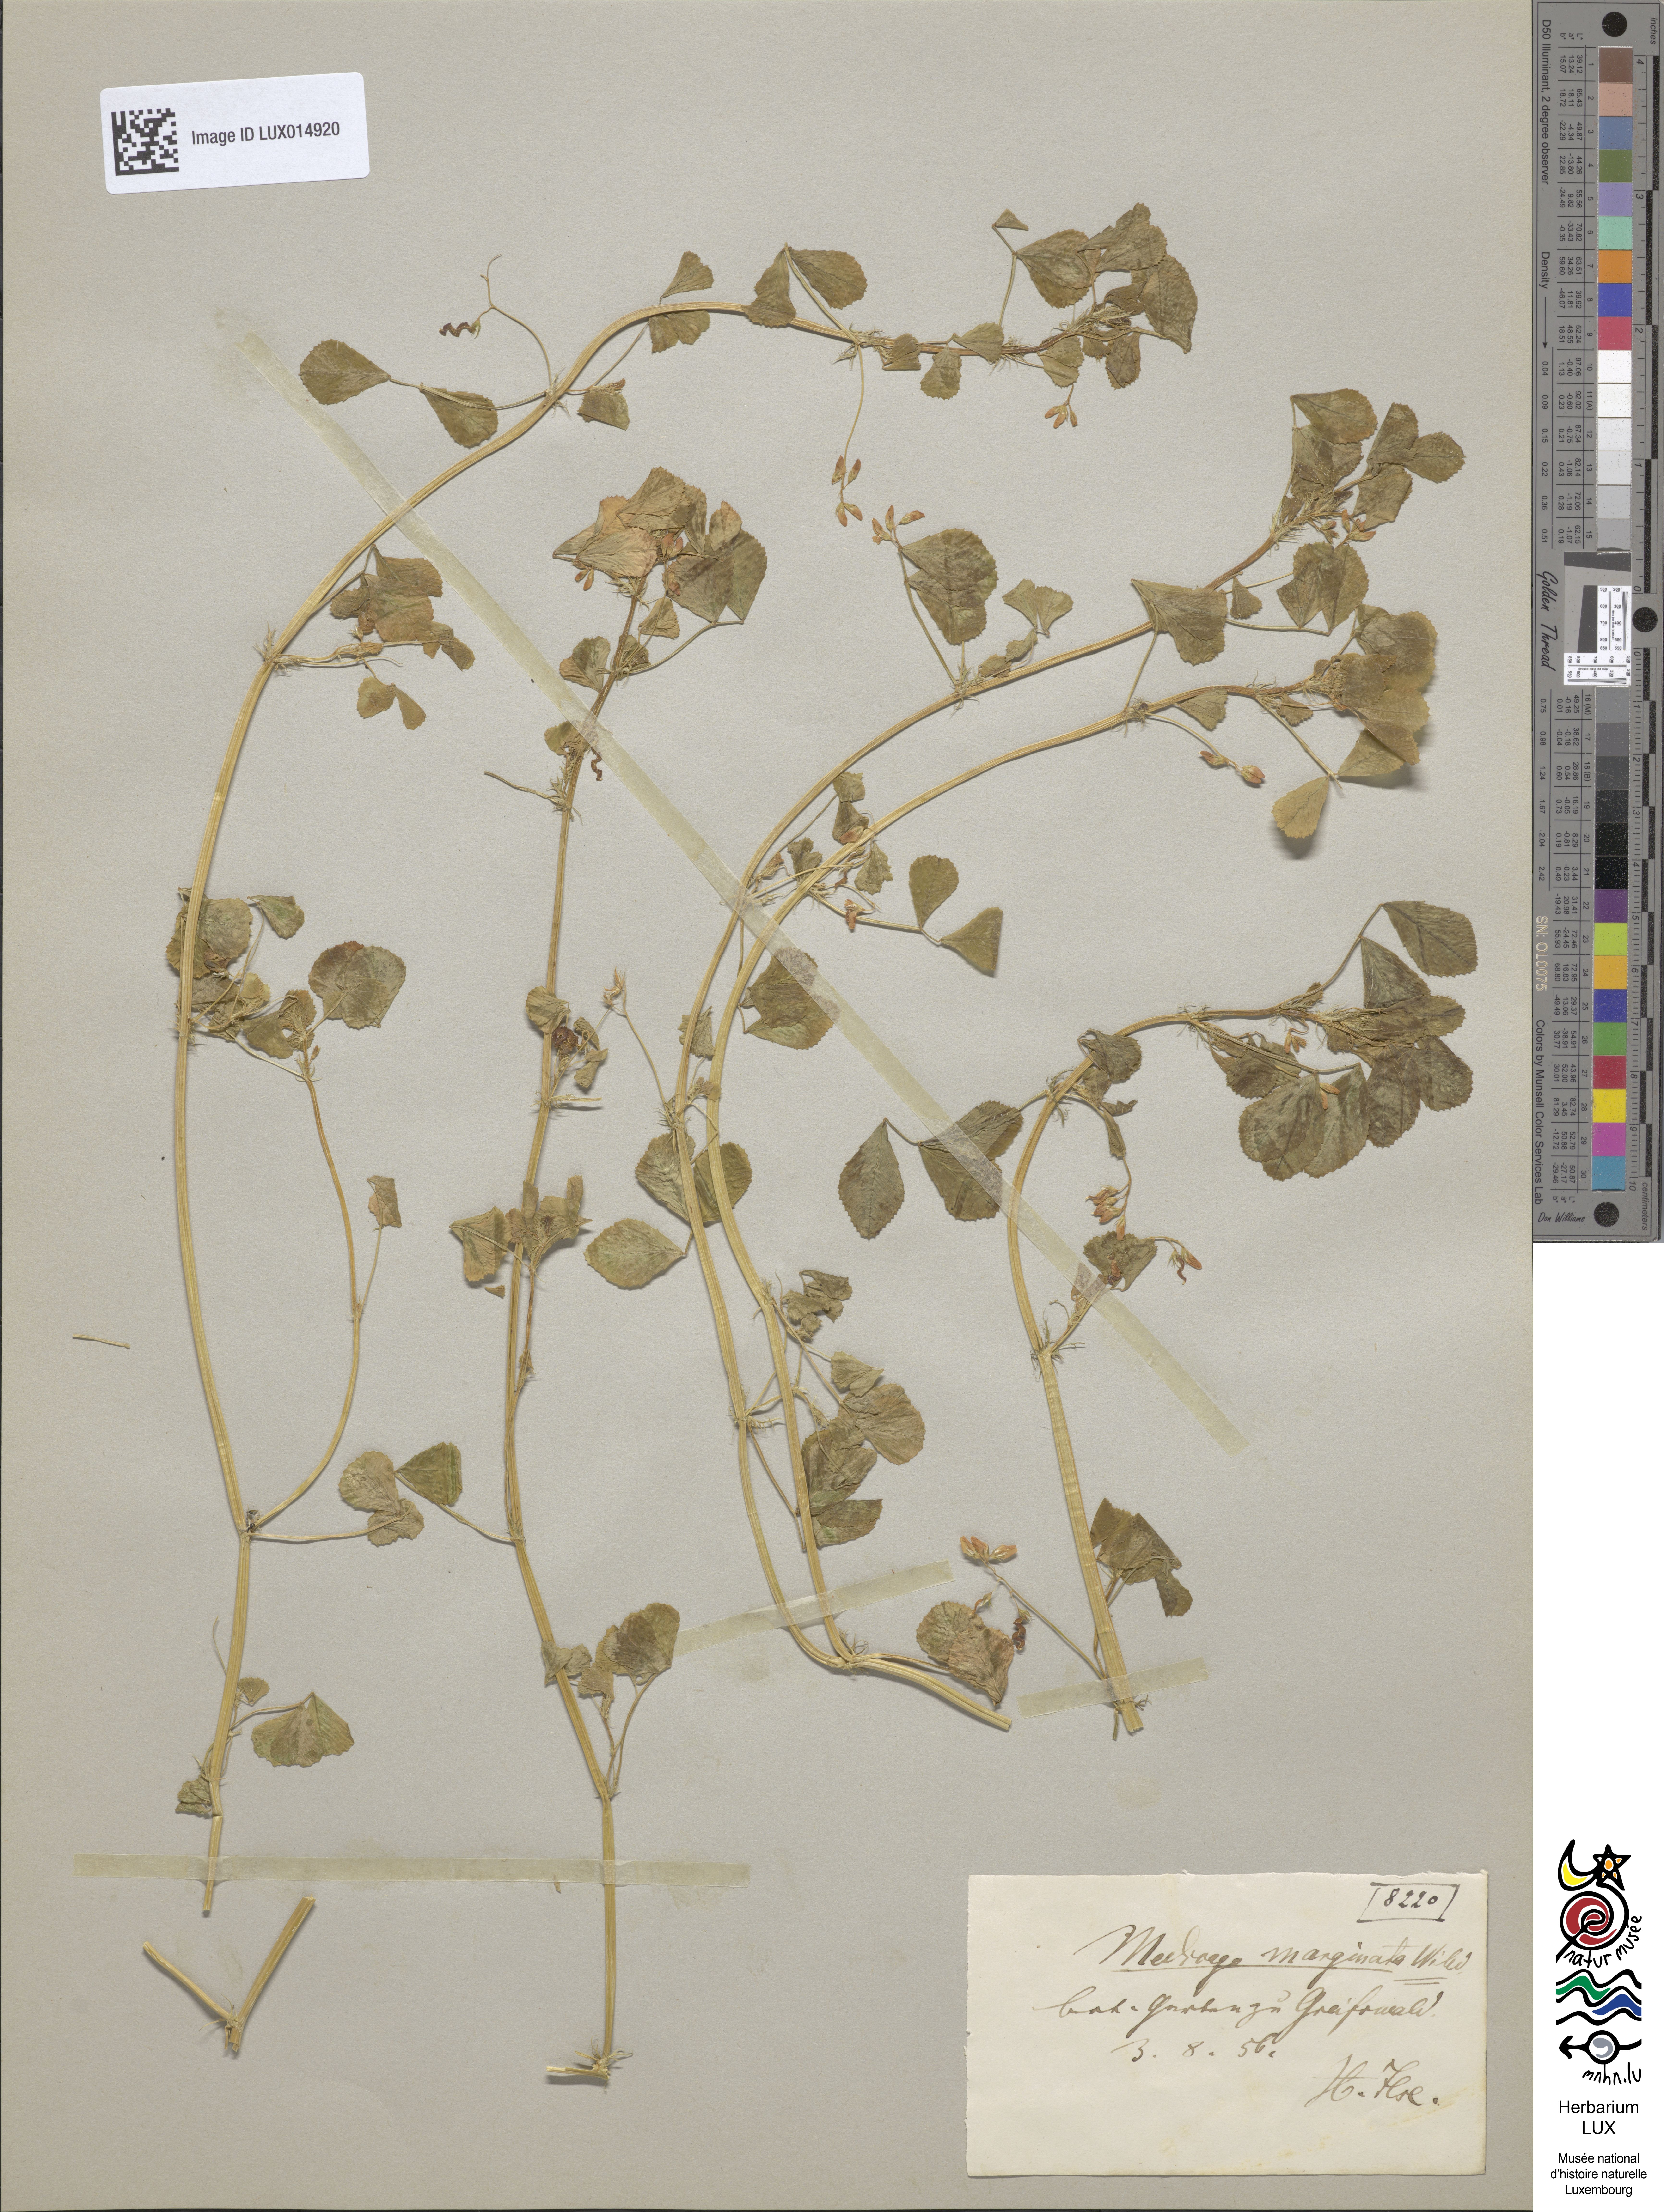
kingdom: Plantae
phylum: Tracheophyta
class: Magnoliopsida
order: Fabales
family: Fabaceae
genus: Medicago
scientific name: Medicago orbicularis
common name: Button medick
